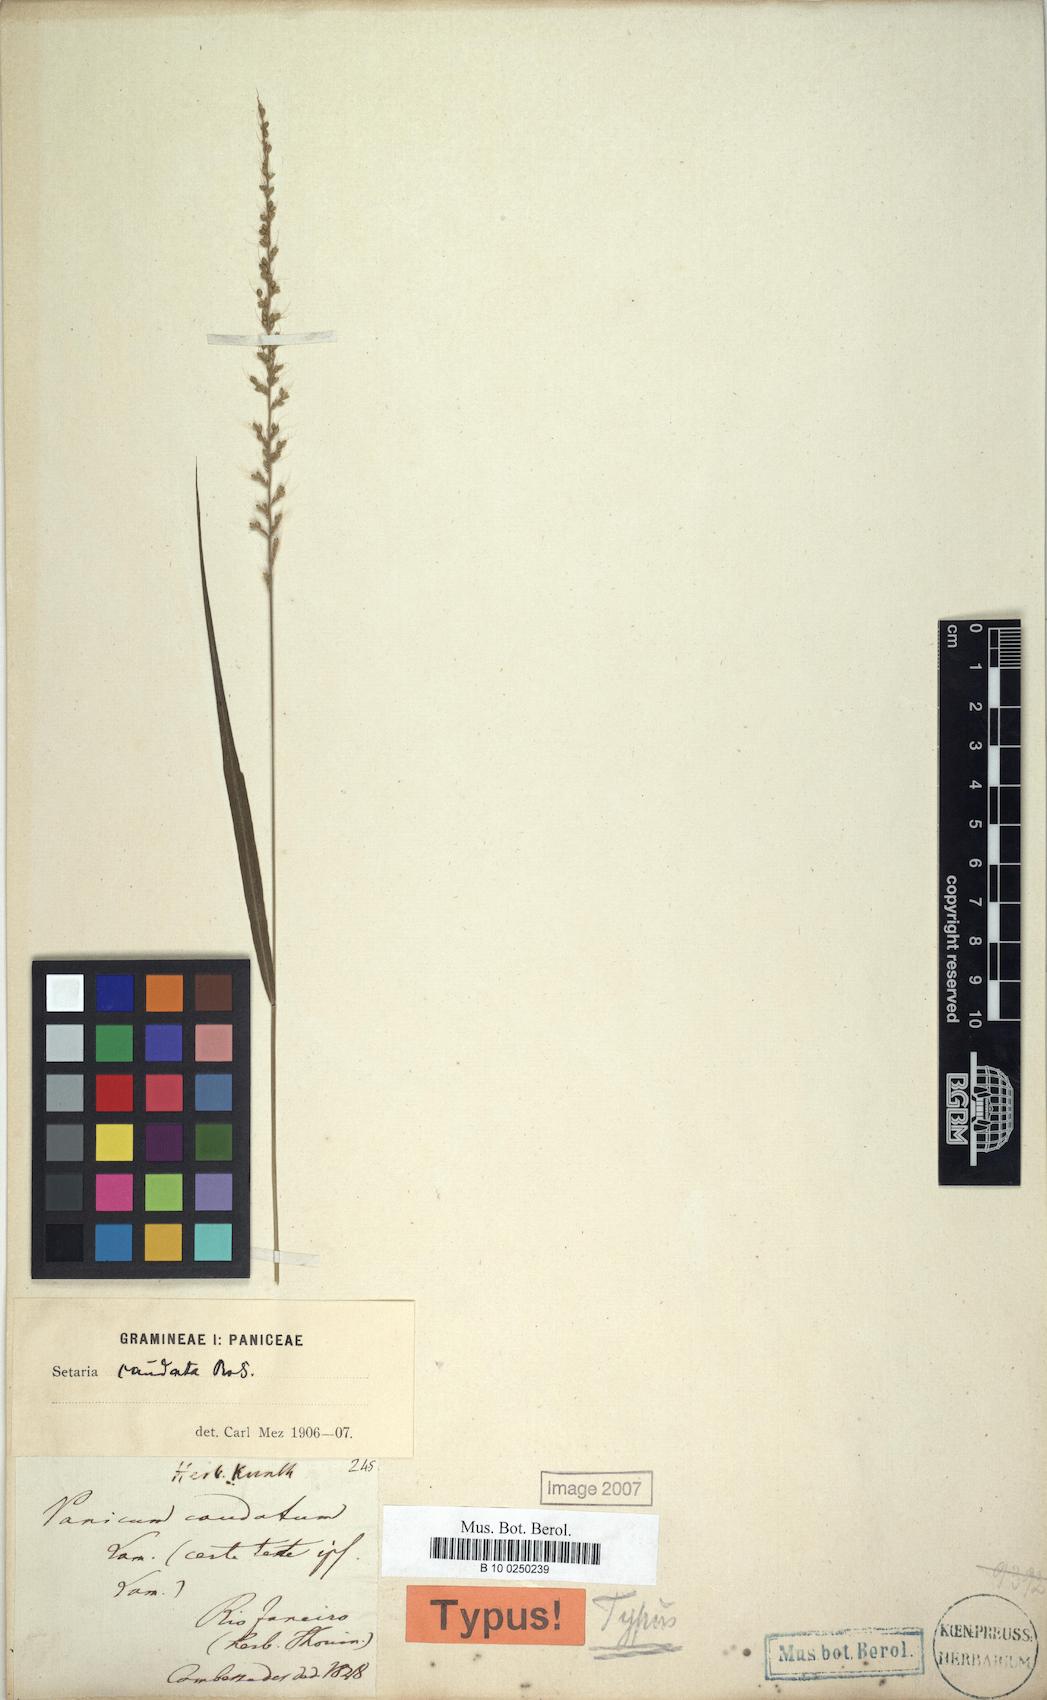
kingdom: Plantae
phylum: Tracheophyta
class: Liliopsida
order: Poales
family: Poaceae
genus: Setaria
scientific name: Setaria setosa
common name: West indies bristle grass
